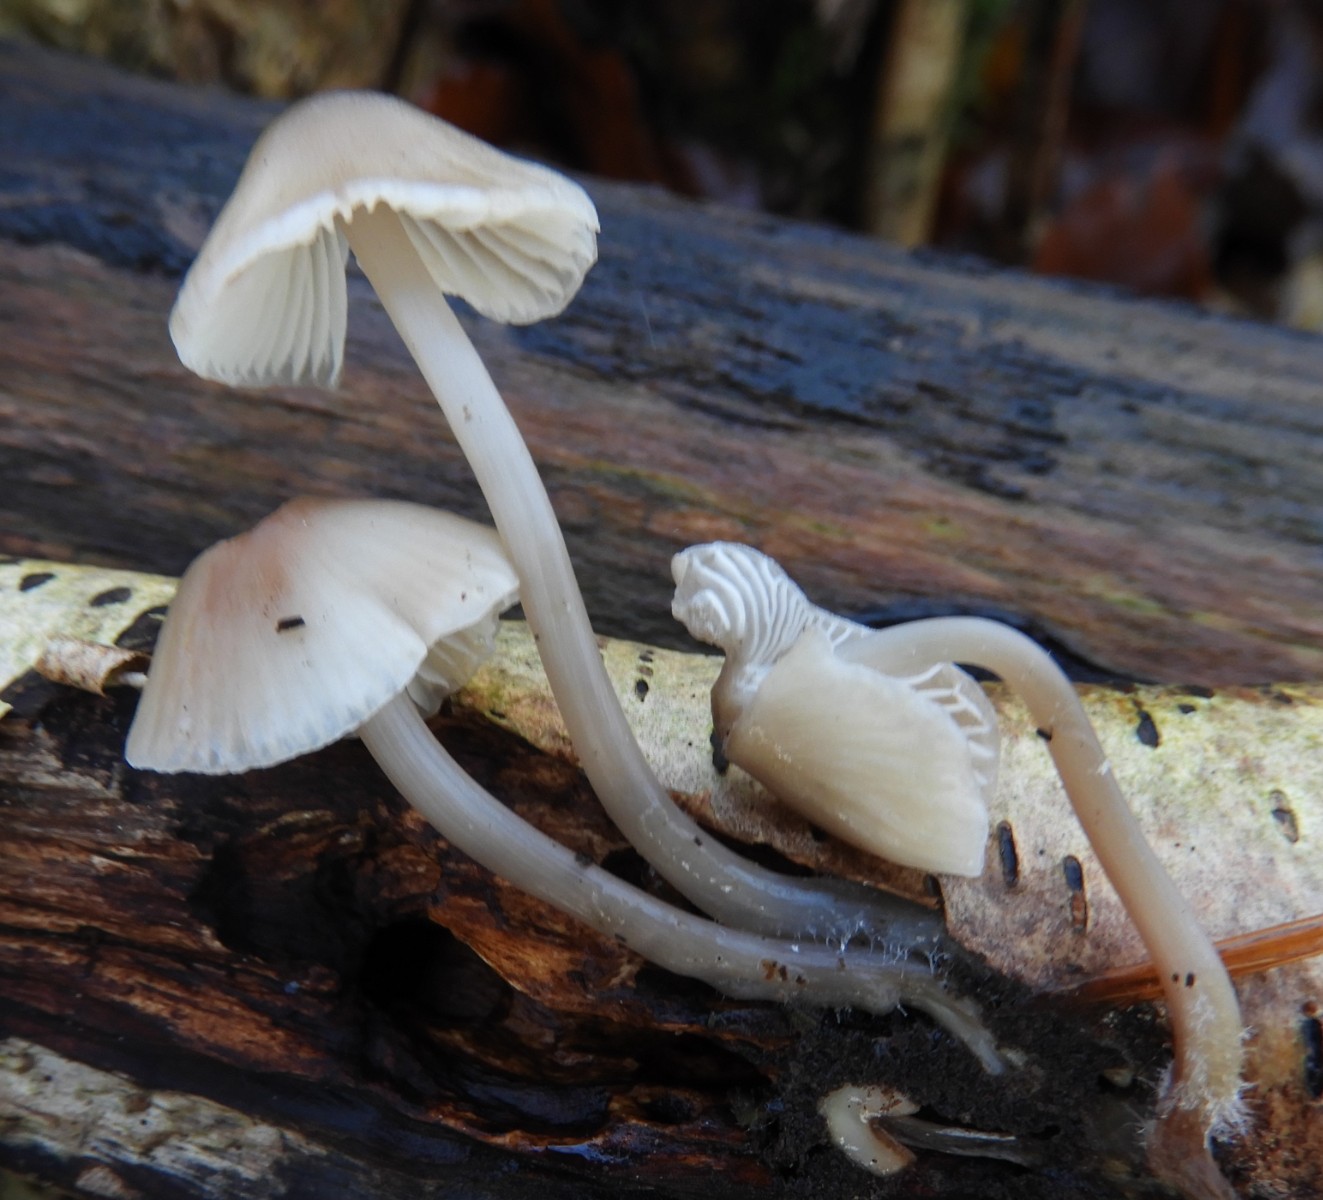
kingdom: Fungi
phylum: Basidiomycota
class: Agaricomycetes
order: Agaricales
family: Mycenaceae
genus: Mycena
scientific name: Mycena galericulata
